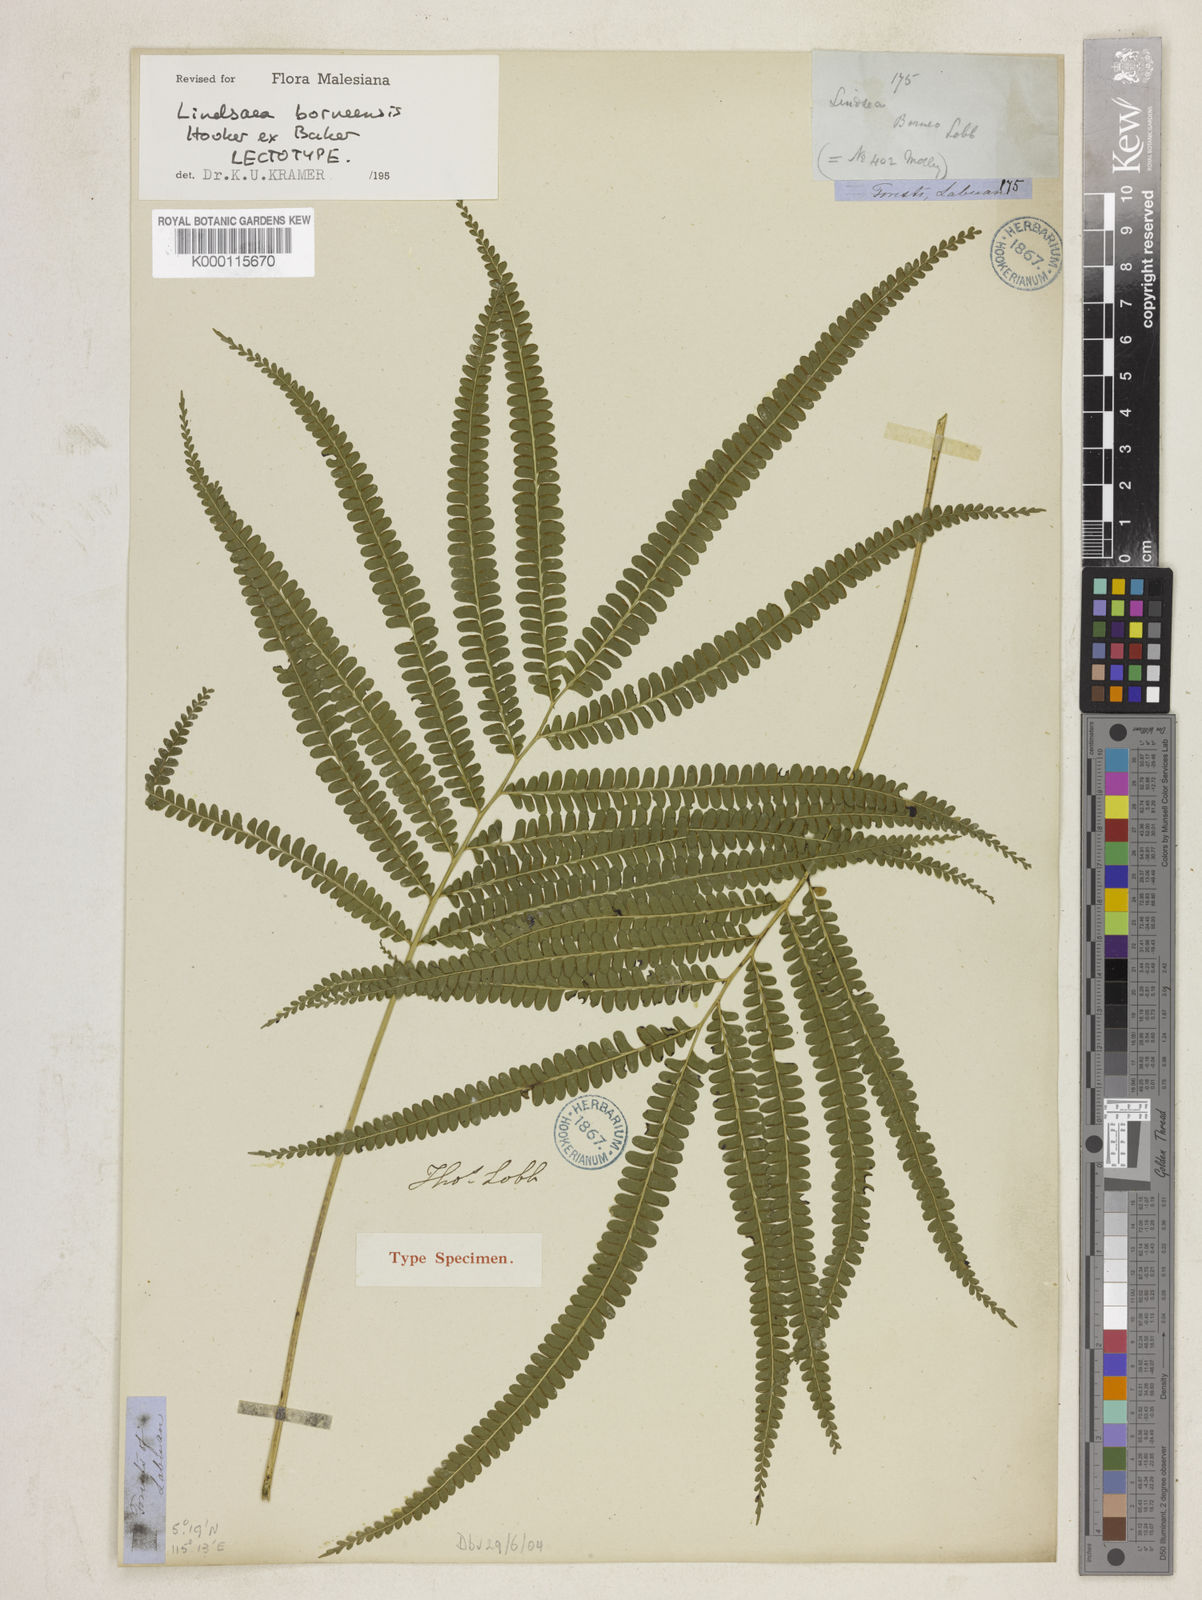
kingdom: Plantae
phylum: Tracheophyta
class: Polypodiopsida
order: Polypodiales
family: Lindsaeaceae
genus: Lindsaea
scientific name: Lindsaea
